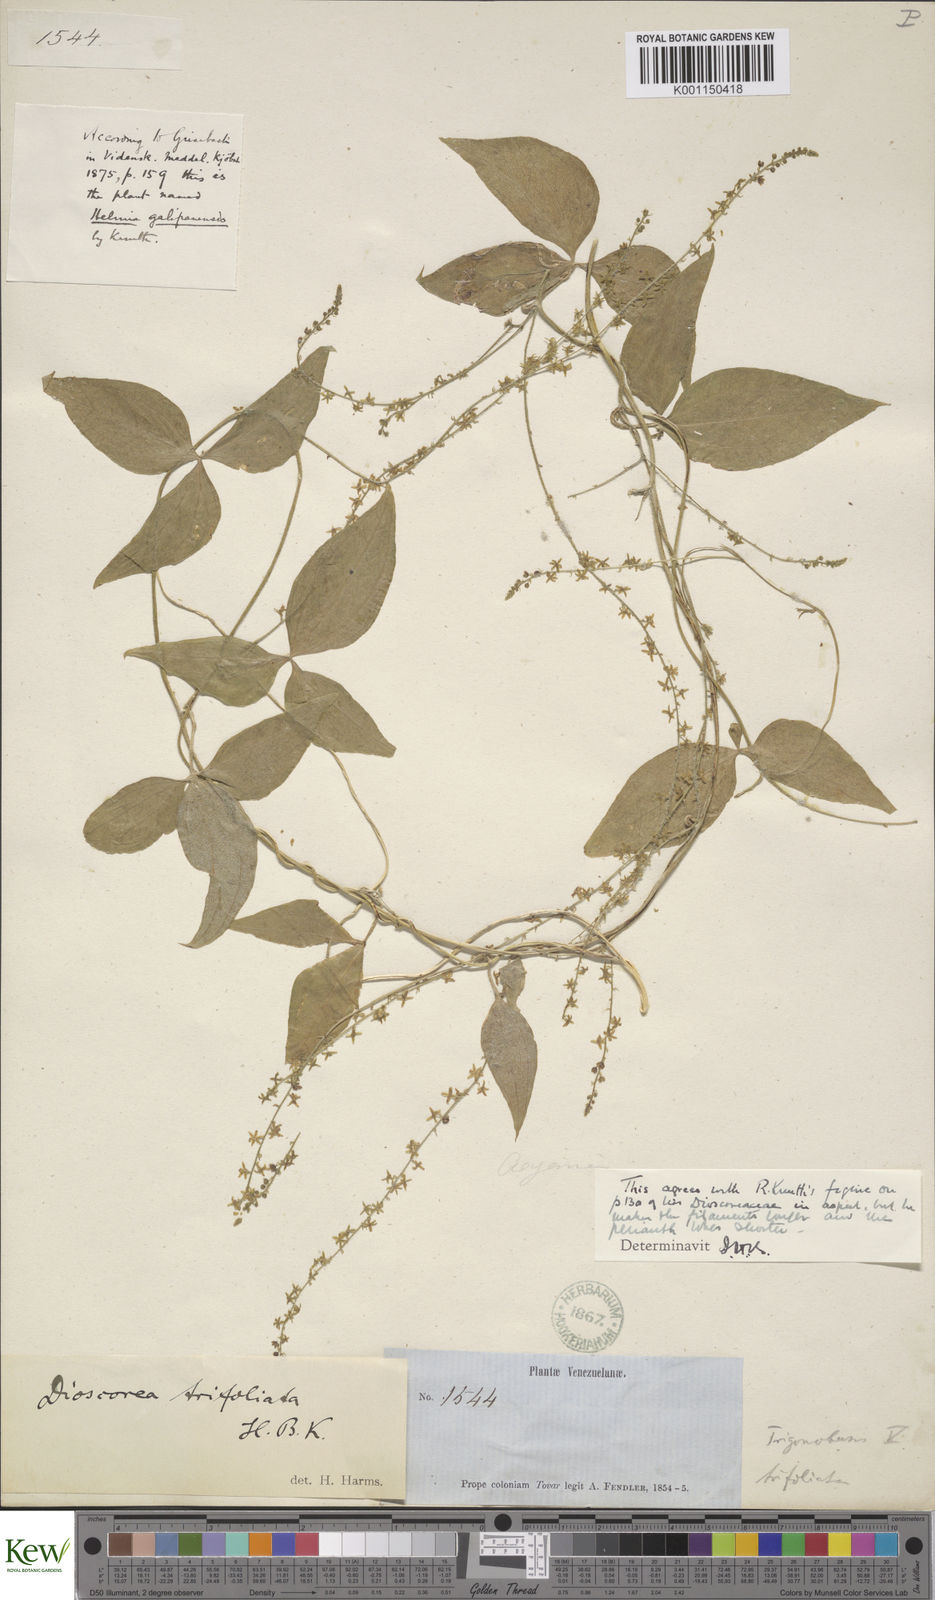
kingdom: Plantae
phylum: Tracheophyta
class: Liliopsida
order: Dioscoreales
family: Dioscoreaceae
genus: Dioscorea
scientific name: Dioscorea trifoliata
